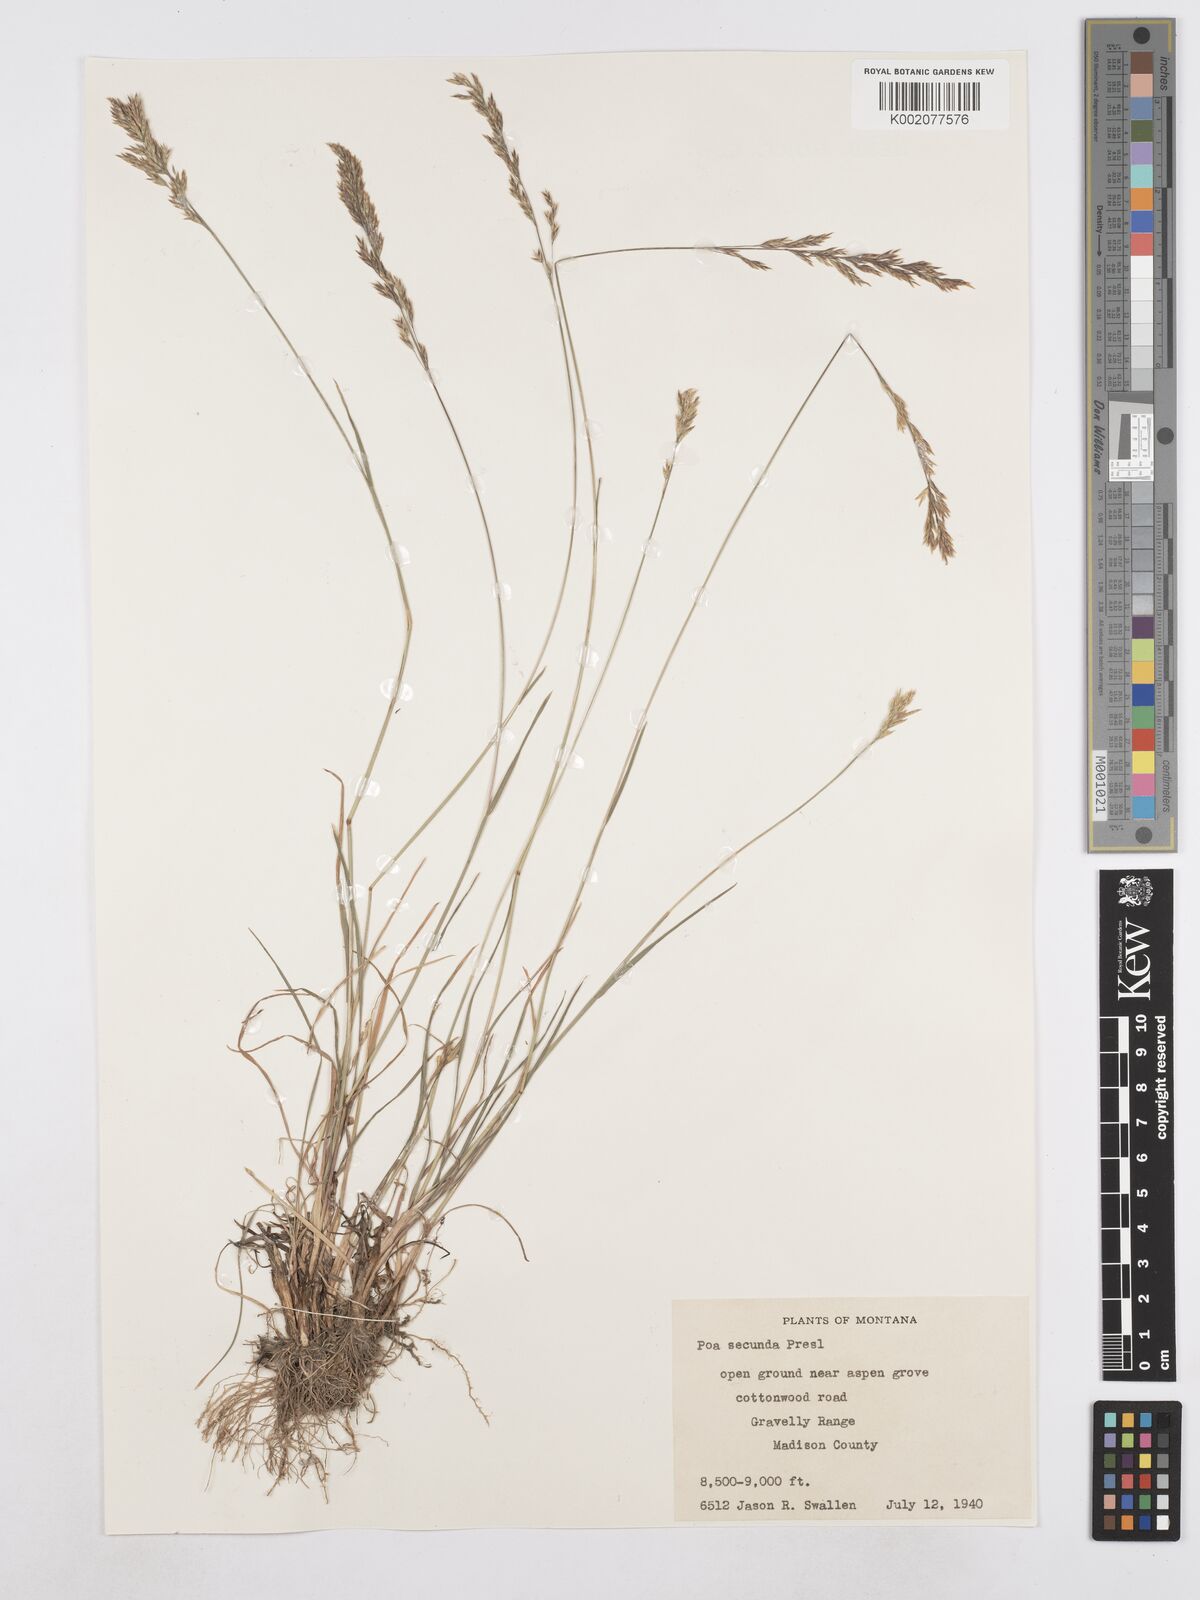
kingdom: Plantae
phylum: Tracheophyta
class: Liliopsida
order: Poales
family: Poaceae
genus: Poa
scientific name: Poa secunda
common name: Sandberg bluegrass
